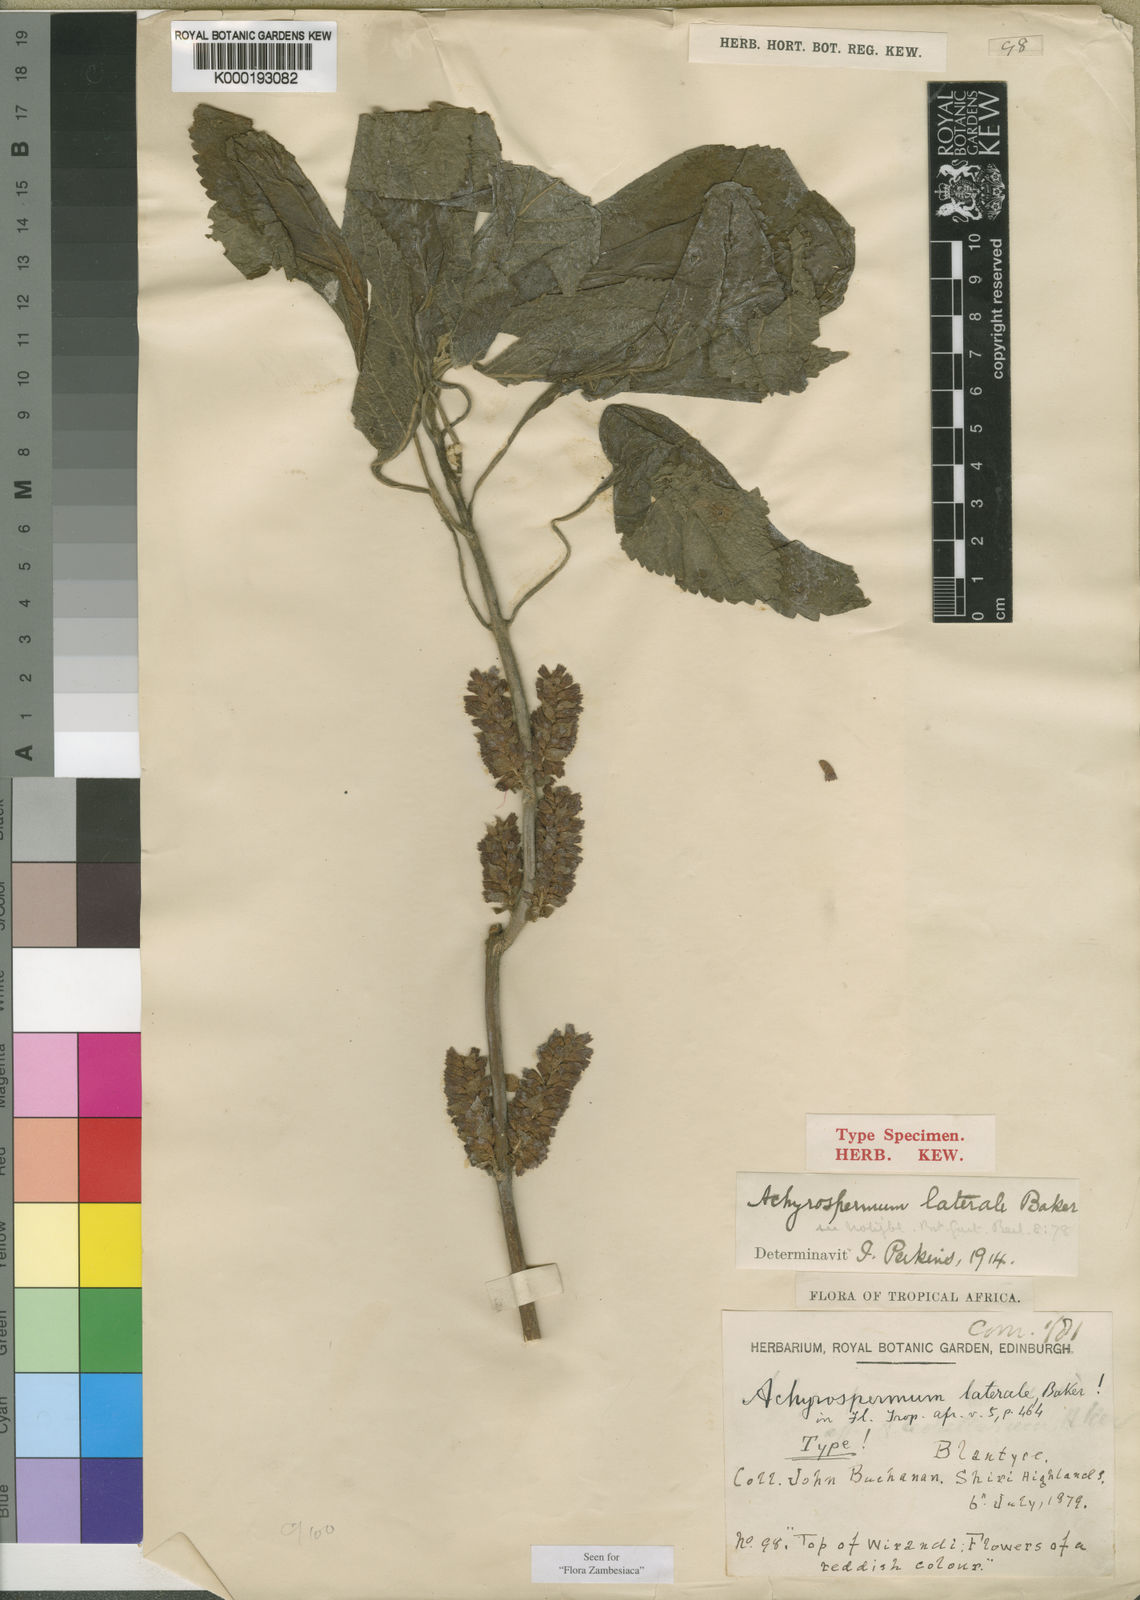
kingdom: Plantae
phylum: Tracheophyta
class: Magnoliopsida
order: Lamiales
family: Lamiaceae
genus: Achyrospermum
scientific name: Achyrospermum laterale
